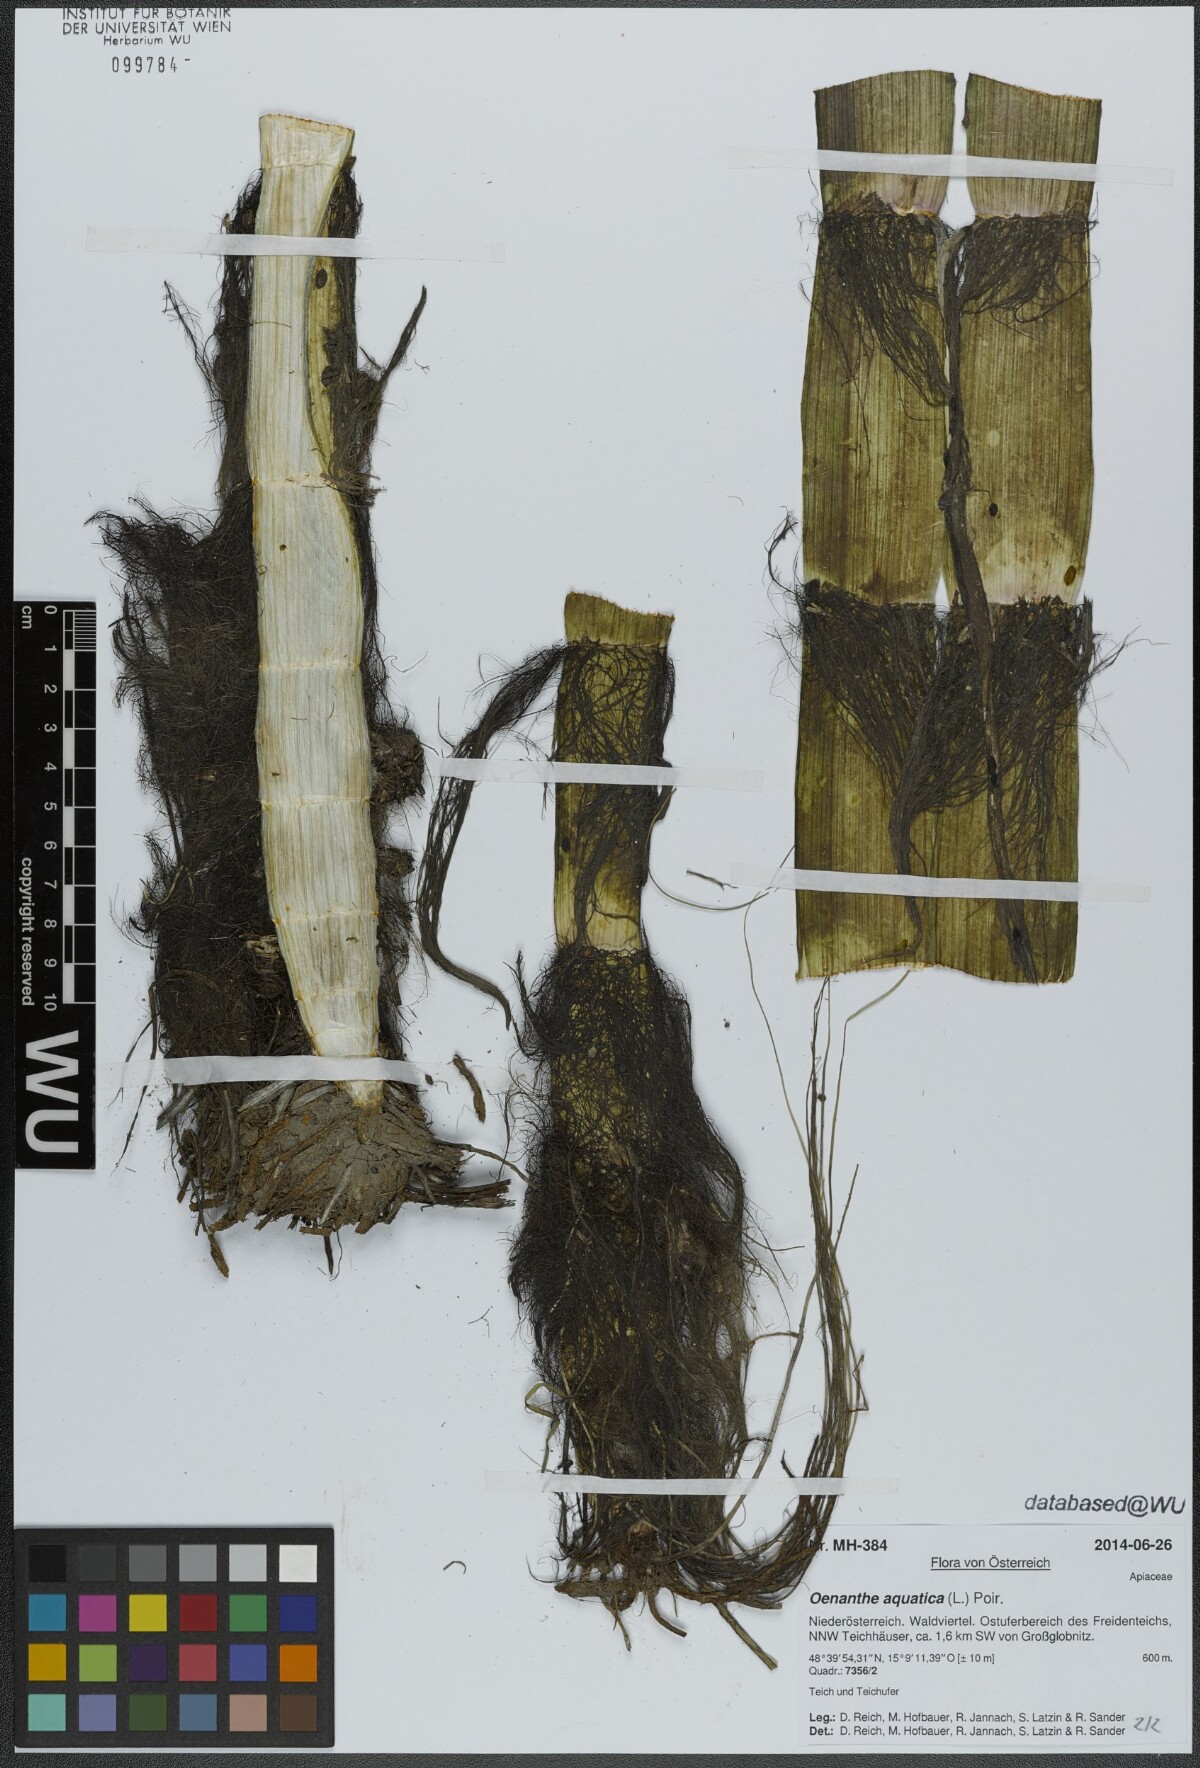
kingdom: Plantae
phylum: Tracheophyta
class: Magnoliopsida
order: Apiales
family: Apiaceae
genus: Oenanthe
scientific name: Oenanthe aquatica
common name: Fine-leaved water-dropwort
